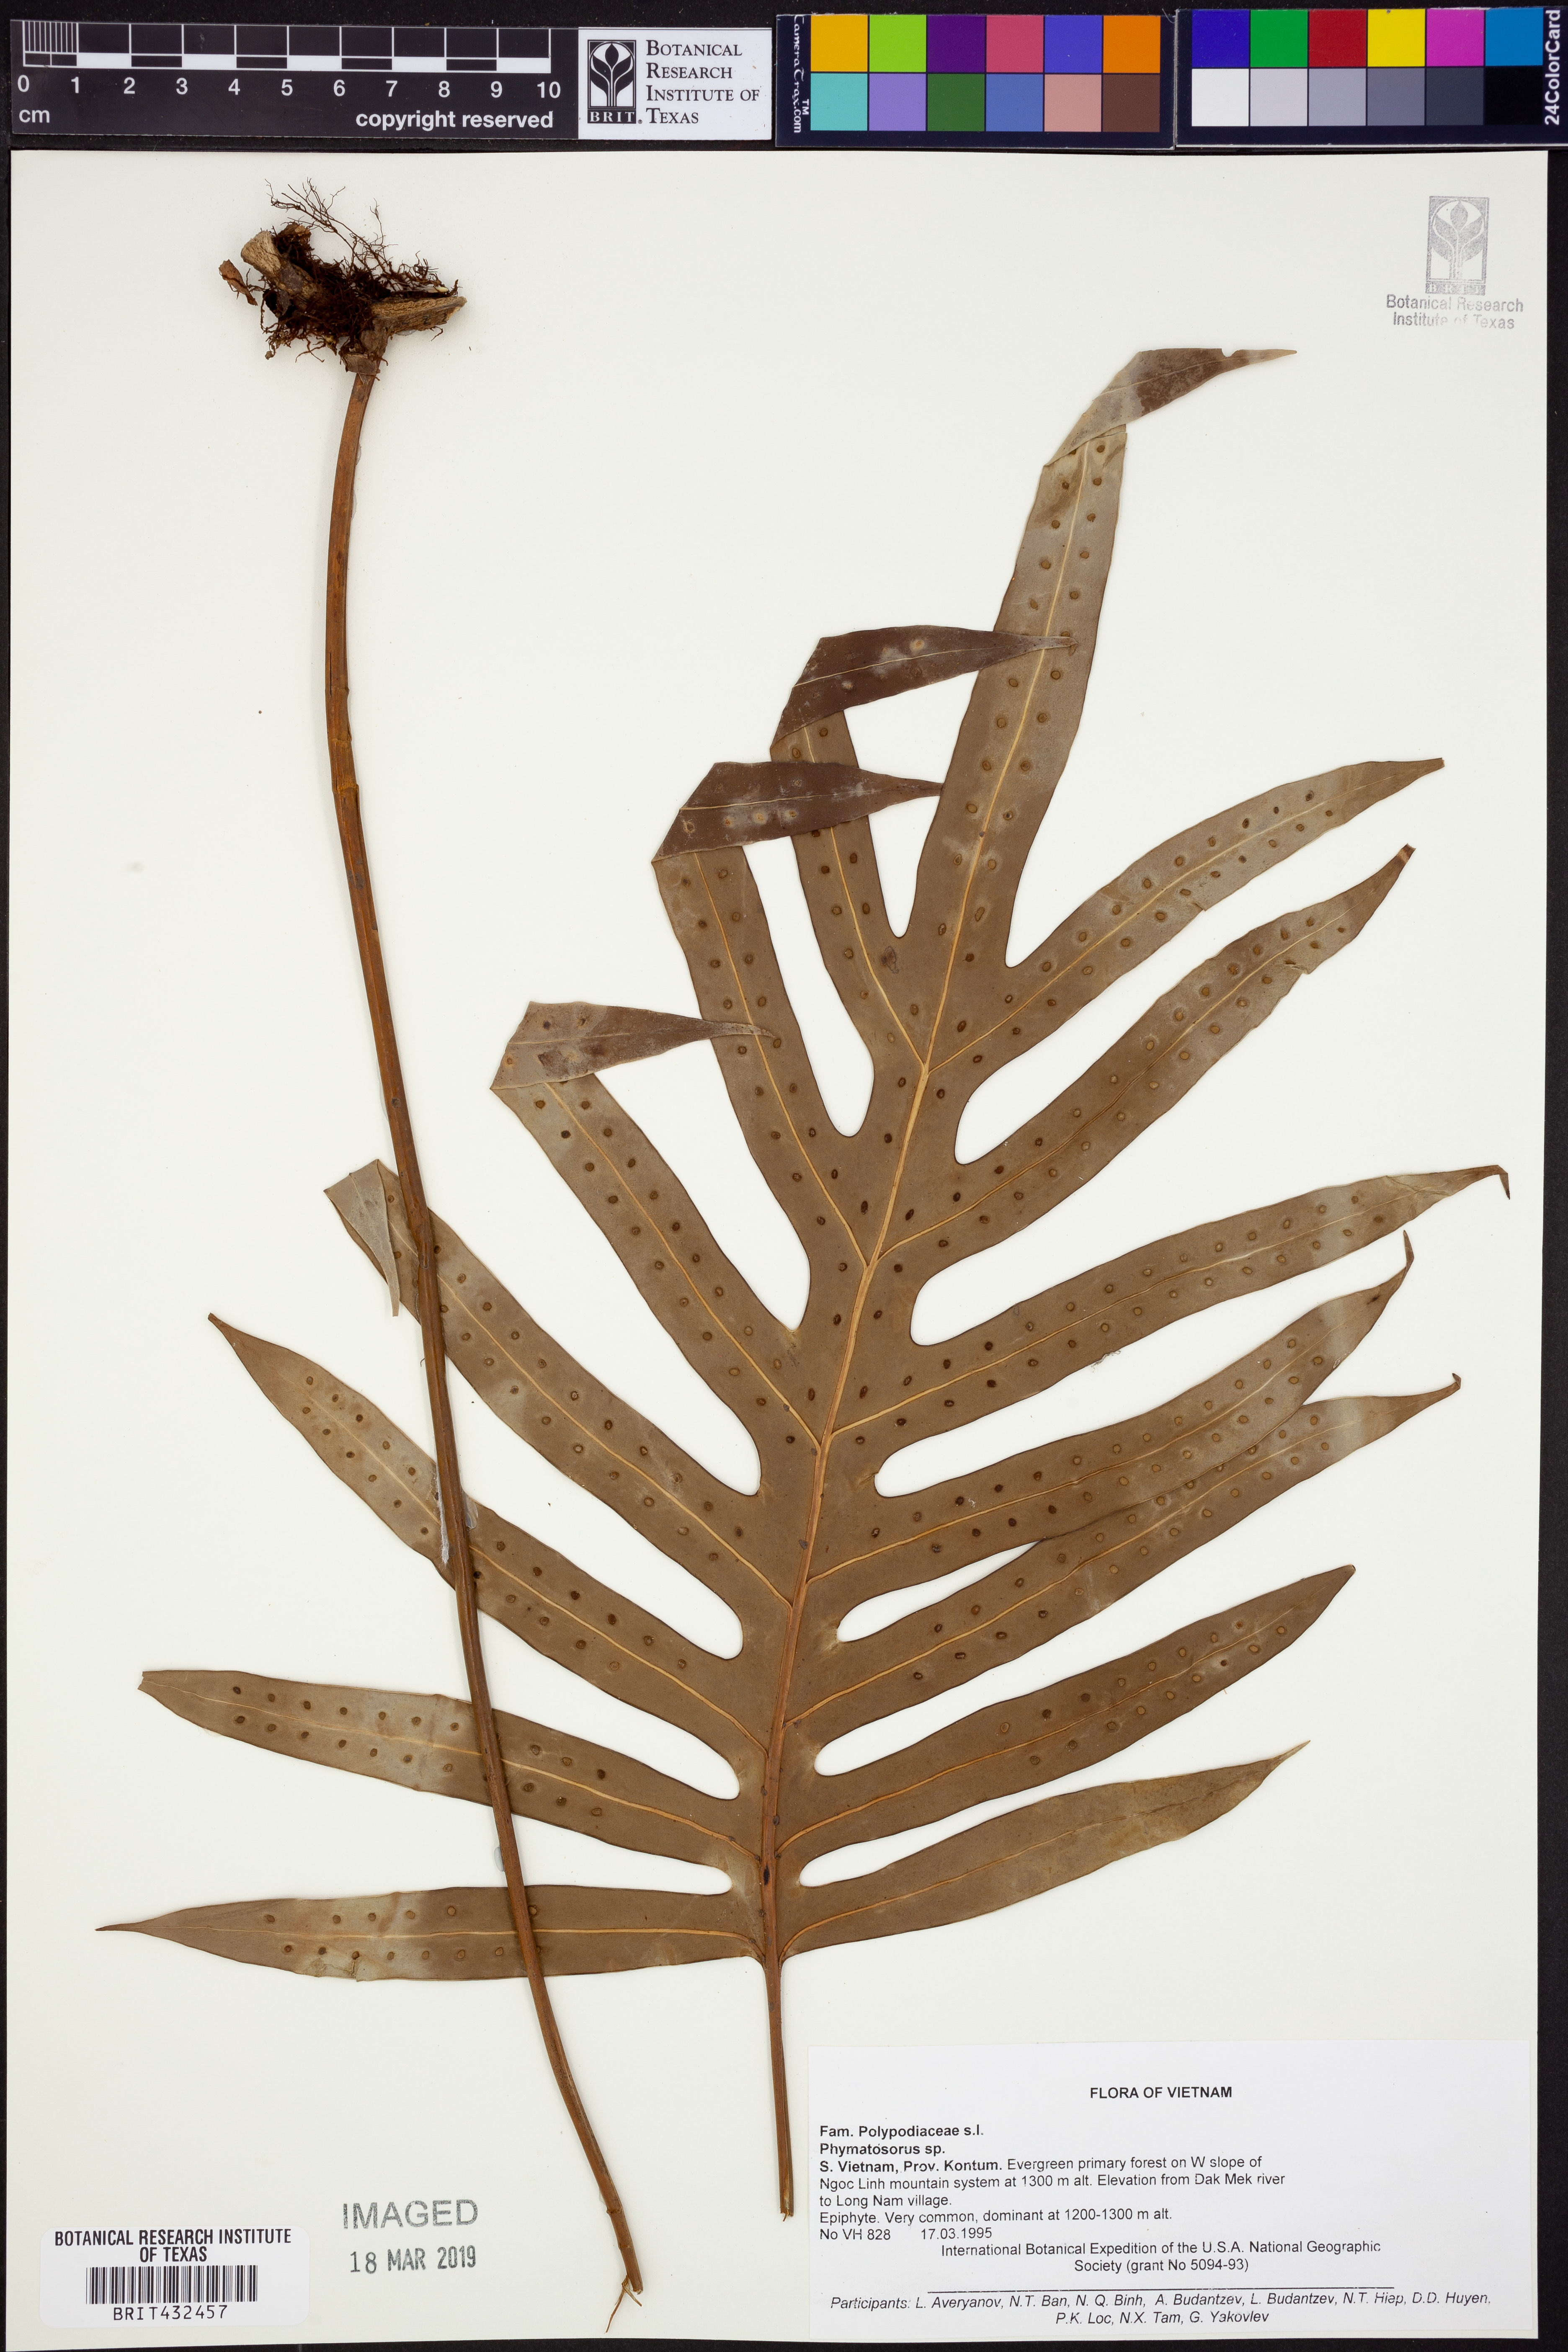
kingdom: Plantae
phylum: Tracheophyta
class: Polypodiopsida
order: Polypodiales
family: Polypodiaceae
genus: Phymatosorus
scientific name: Phymatosorus
